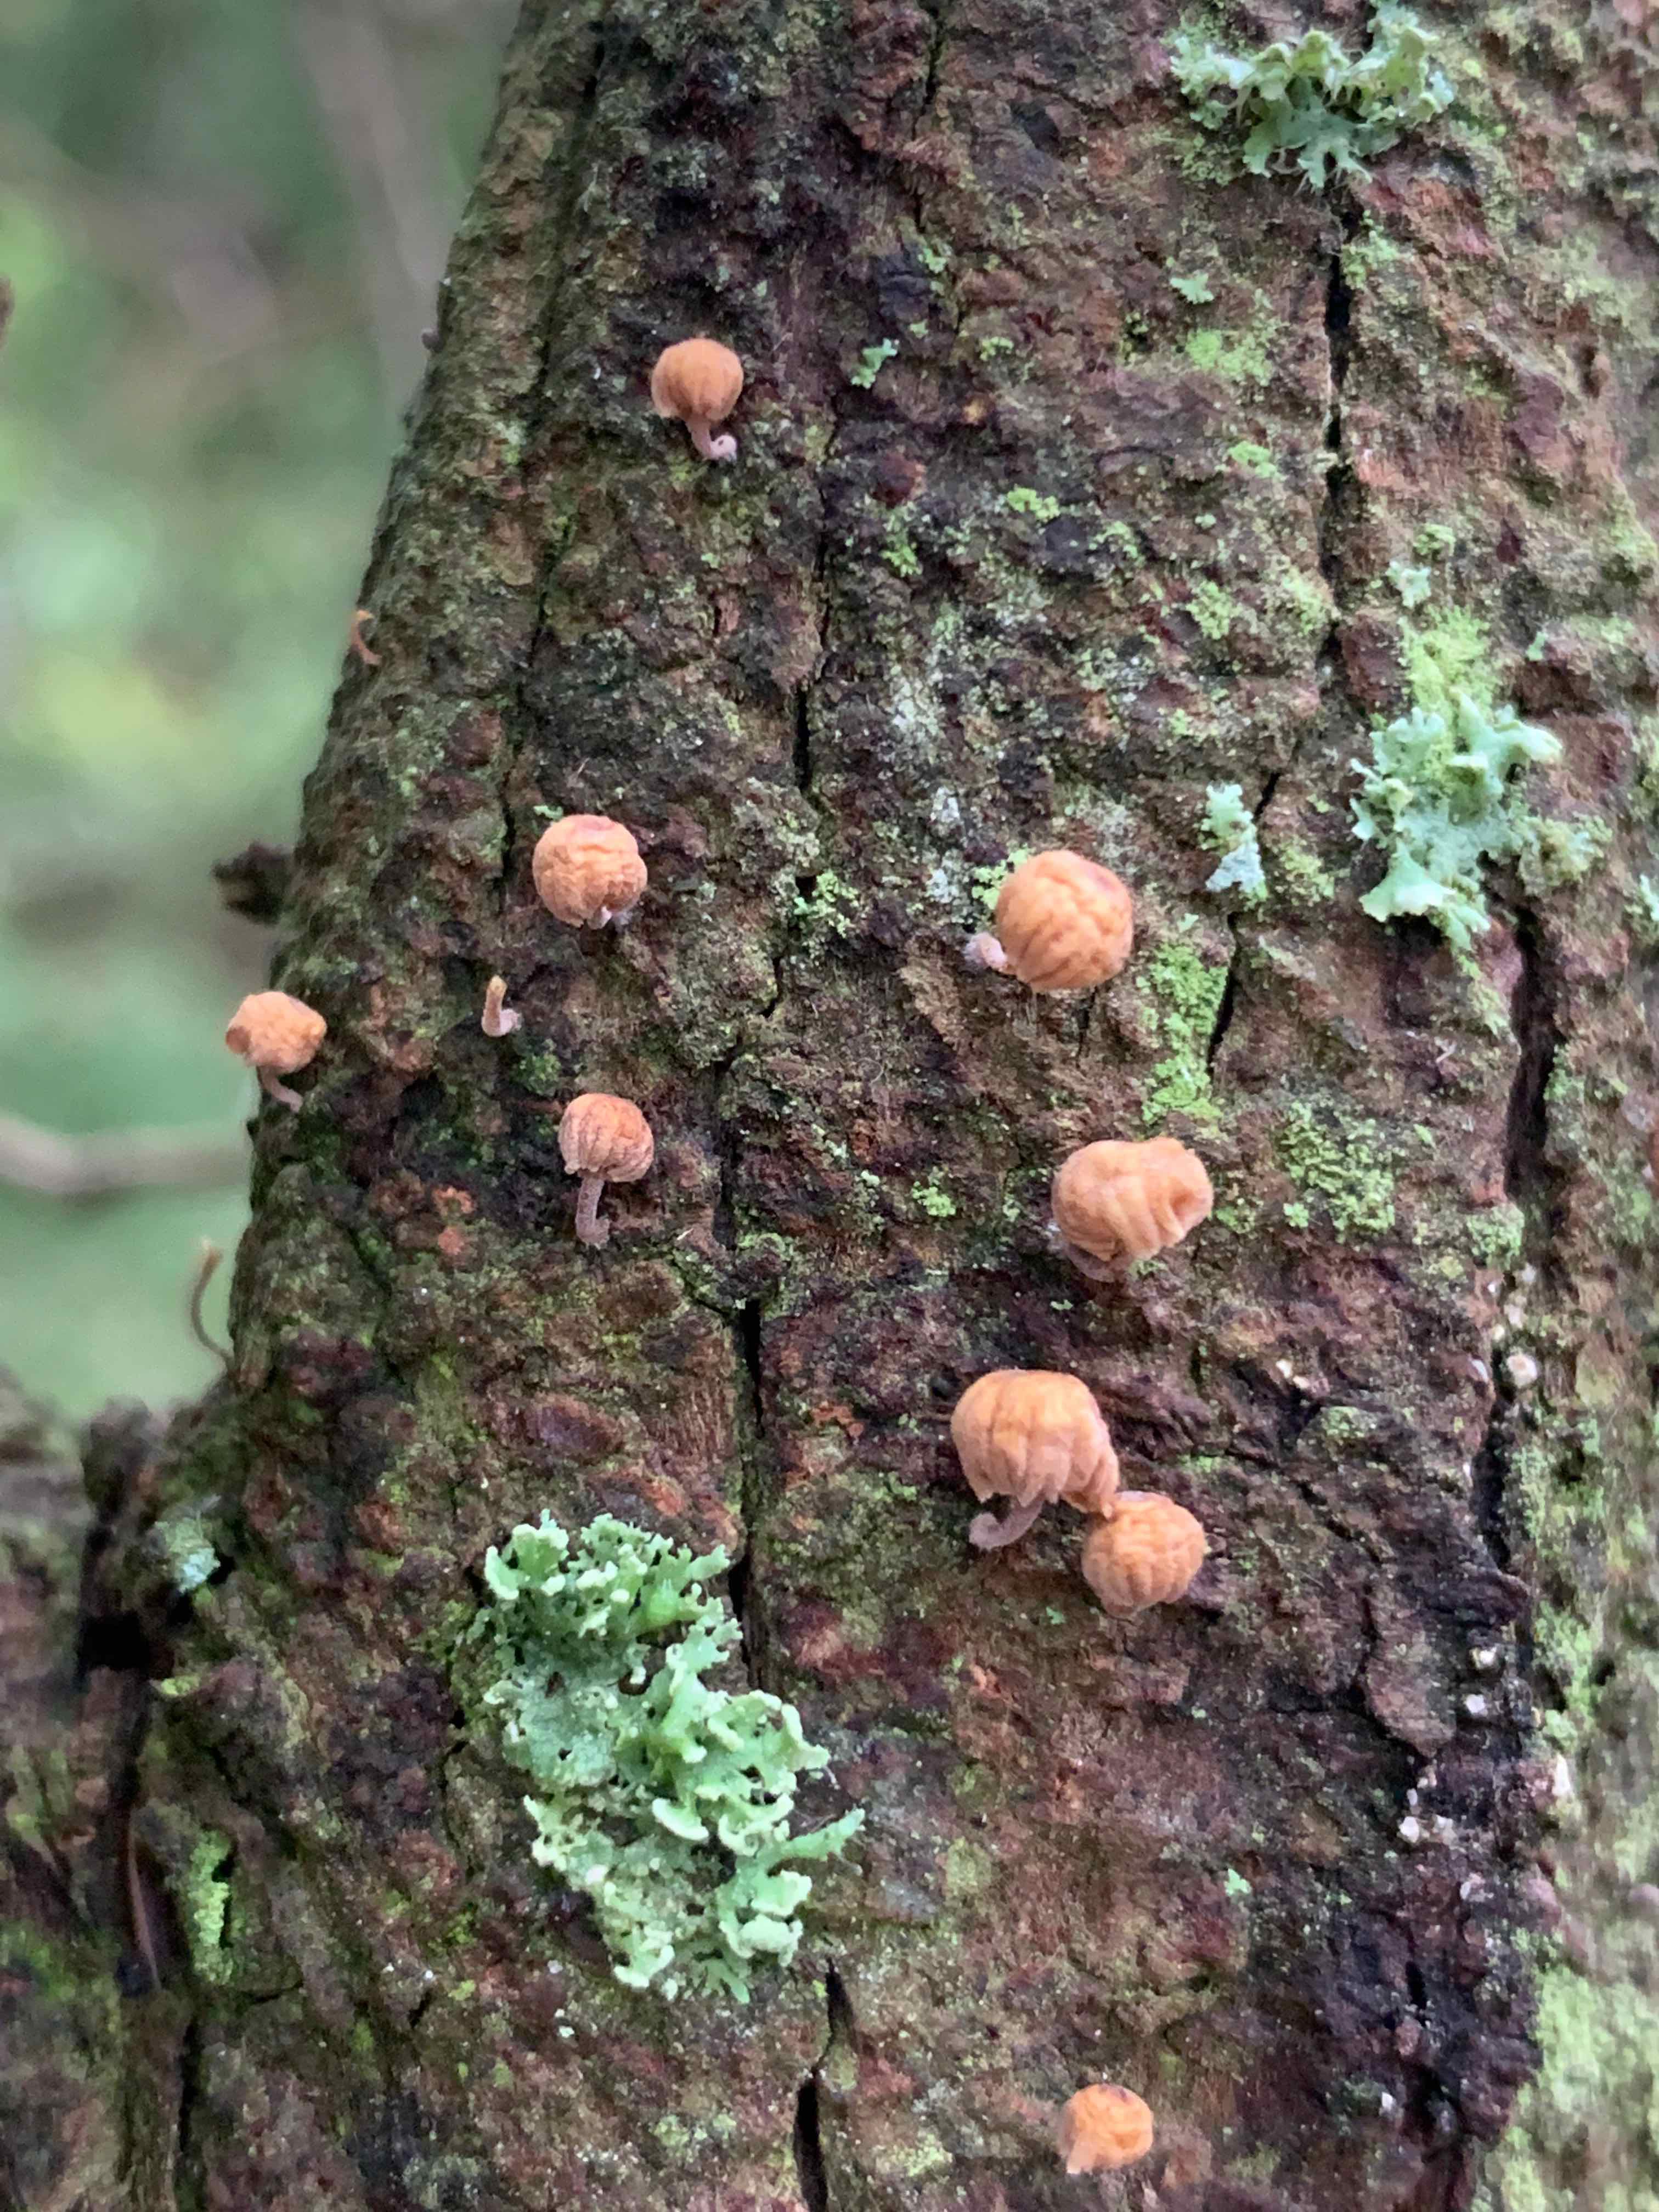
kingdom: Fungi
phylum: Basidiomycota
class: Agaricomycetes
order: Agaricales
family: Mycenaceae
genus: Mycena
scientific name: Mycena juniperina
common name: ene-Huesvamp
